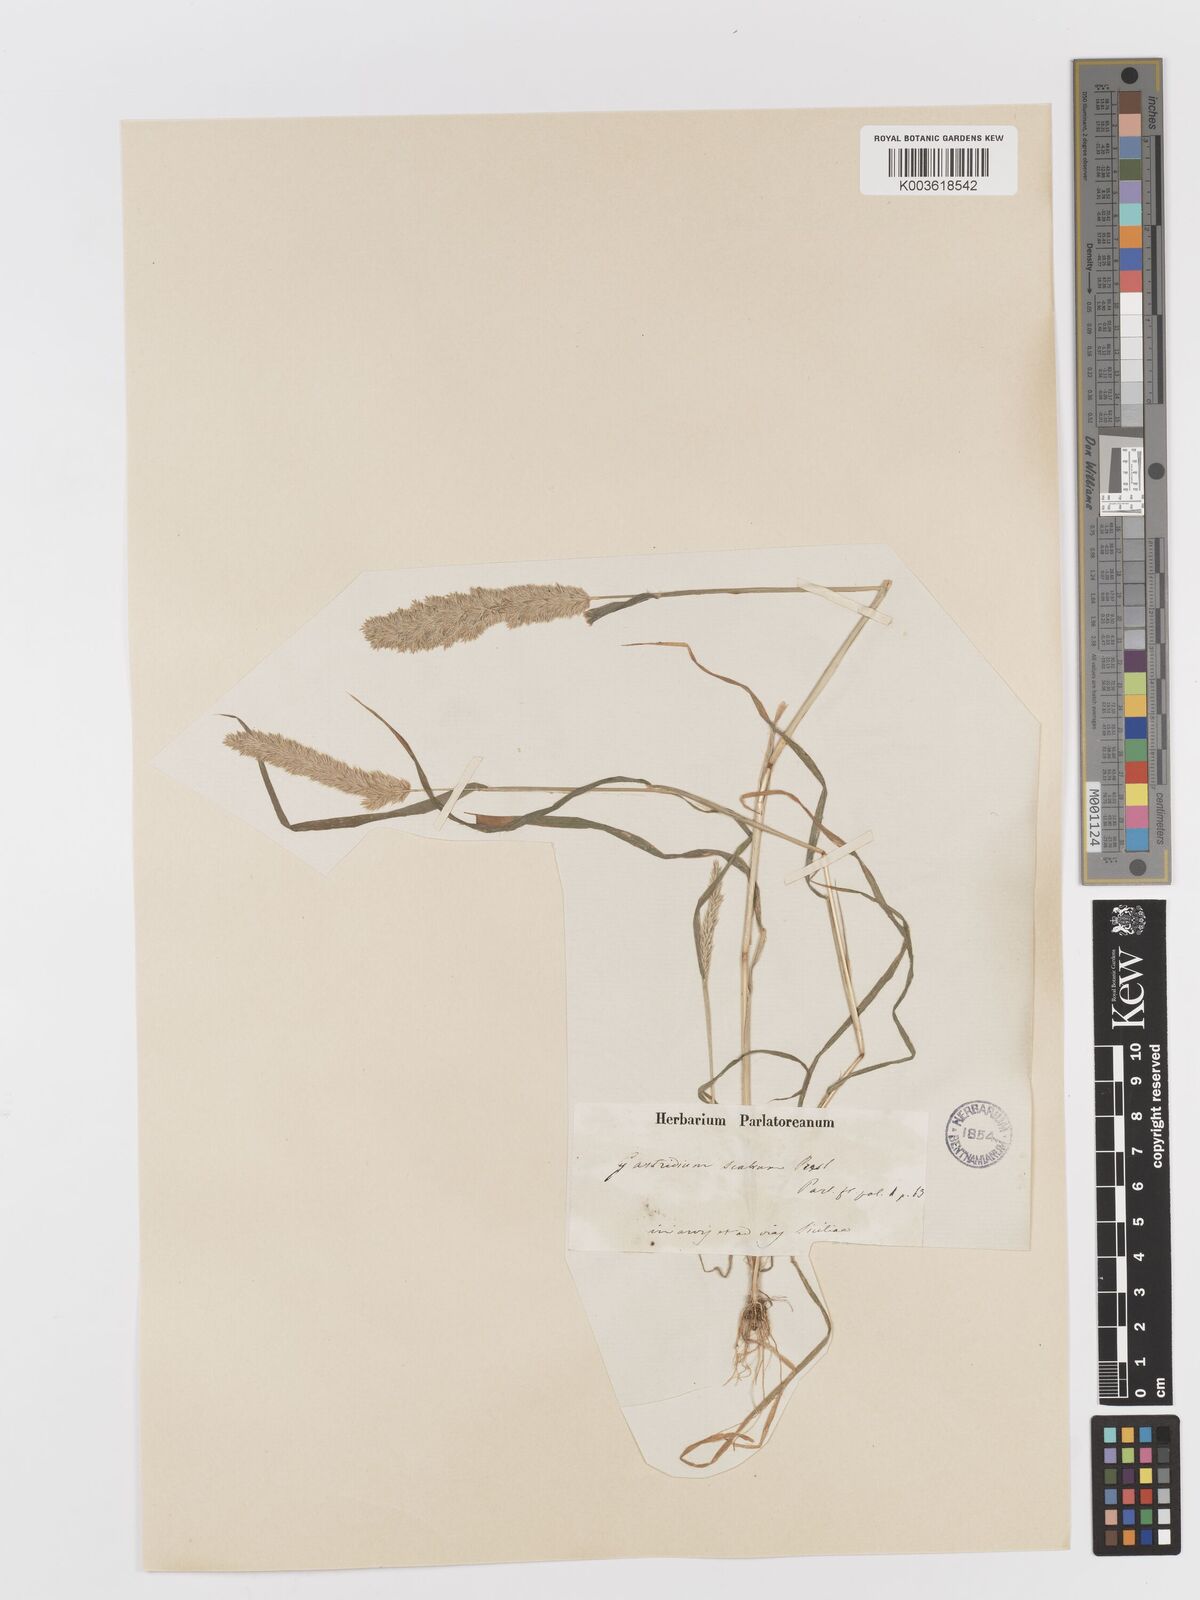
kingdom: Plantae
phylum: Tracheophyta
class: Liliopsida
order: Poales
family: Poaceae
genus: Rostraria
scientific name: Rostraria cristata
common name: Mediterranean hair-grass
